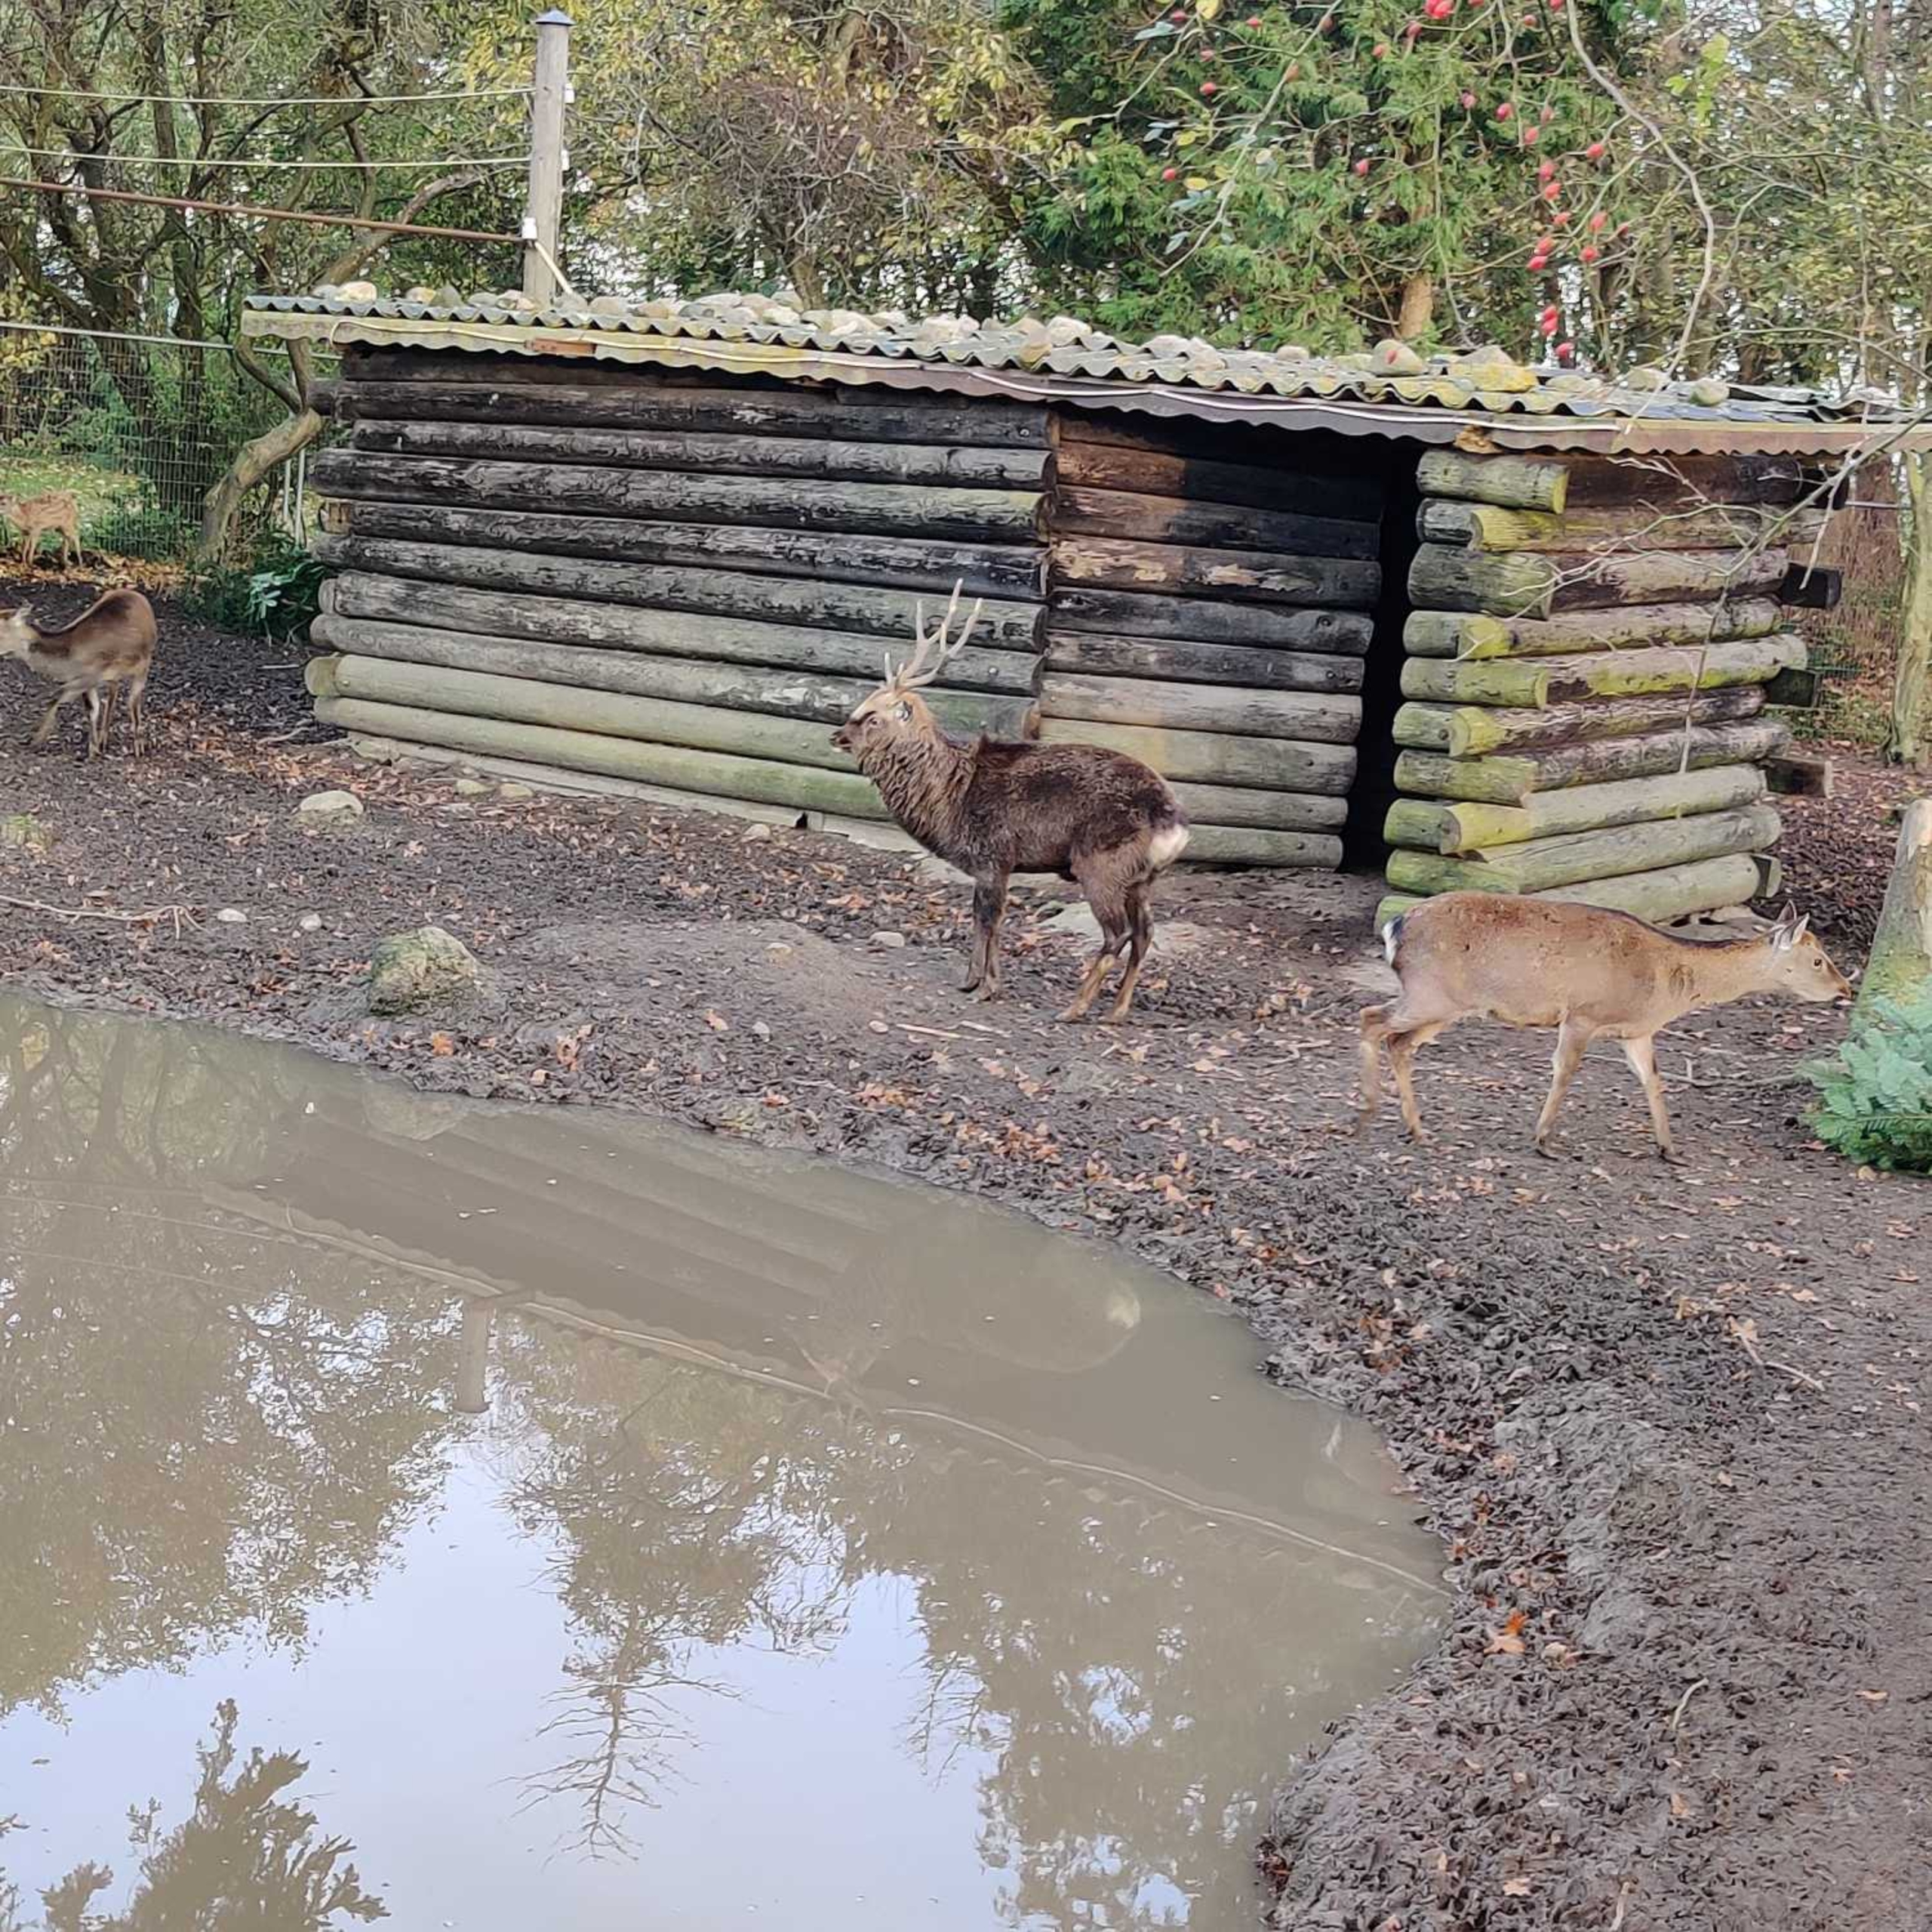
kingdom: Animalia
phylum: Chordata
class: Mammalia
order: Artiodactyla
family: Cervidae
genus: Cervus
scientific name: Cervus nippon
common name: Sika
